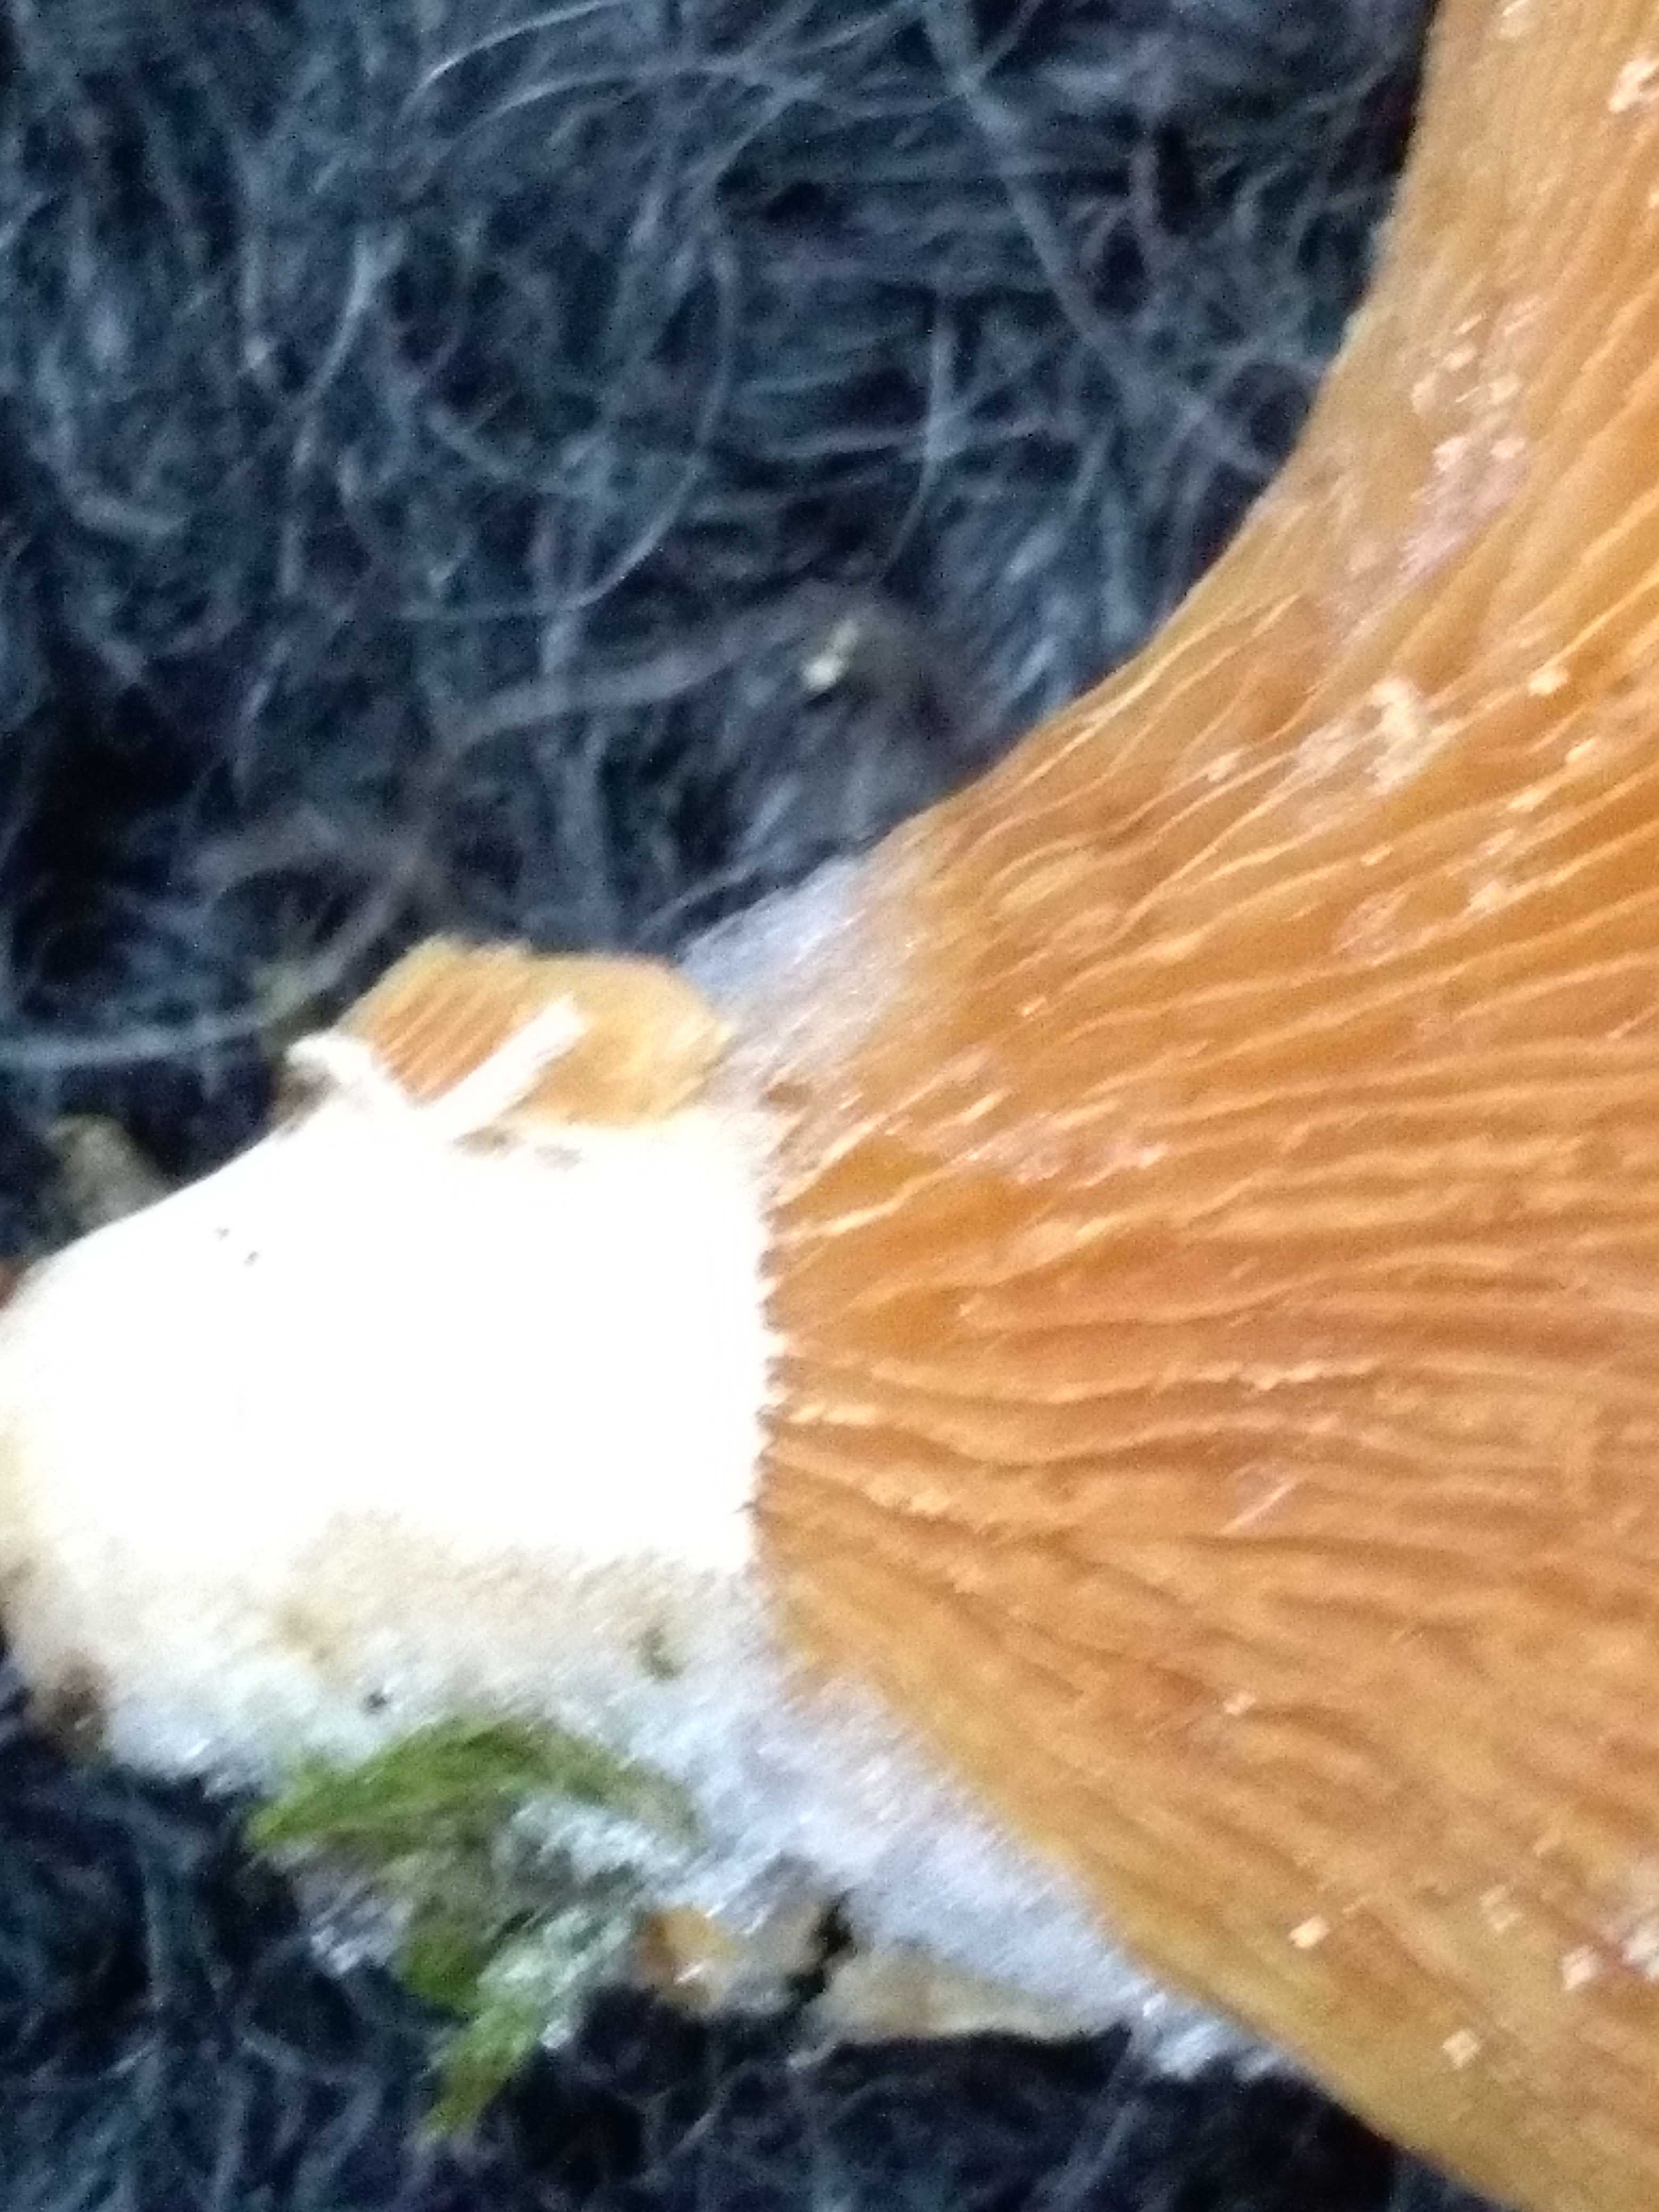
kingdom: Fungi
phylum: Basidiomycota
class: Agaricomycetes
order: Agaricales
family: Mycenaceae
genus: Panellus
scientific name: Panellus stipticus
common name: kliddet epaulethat
